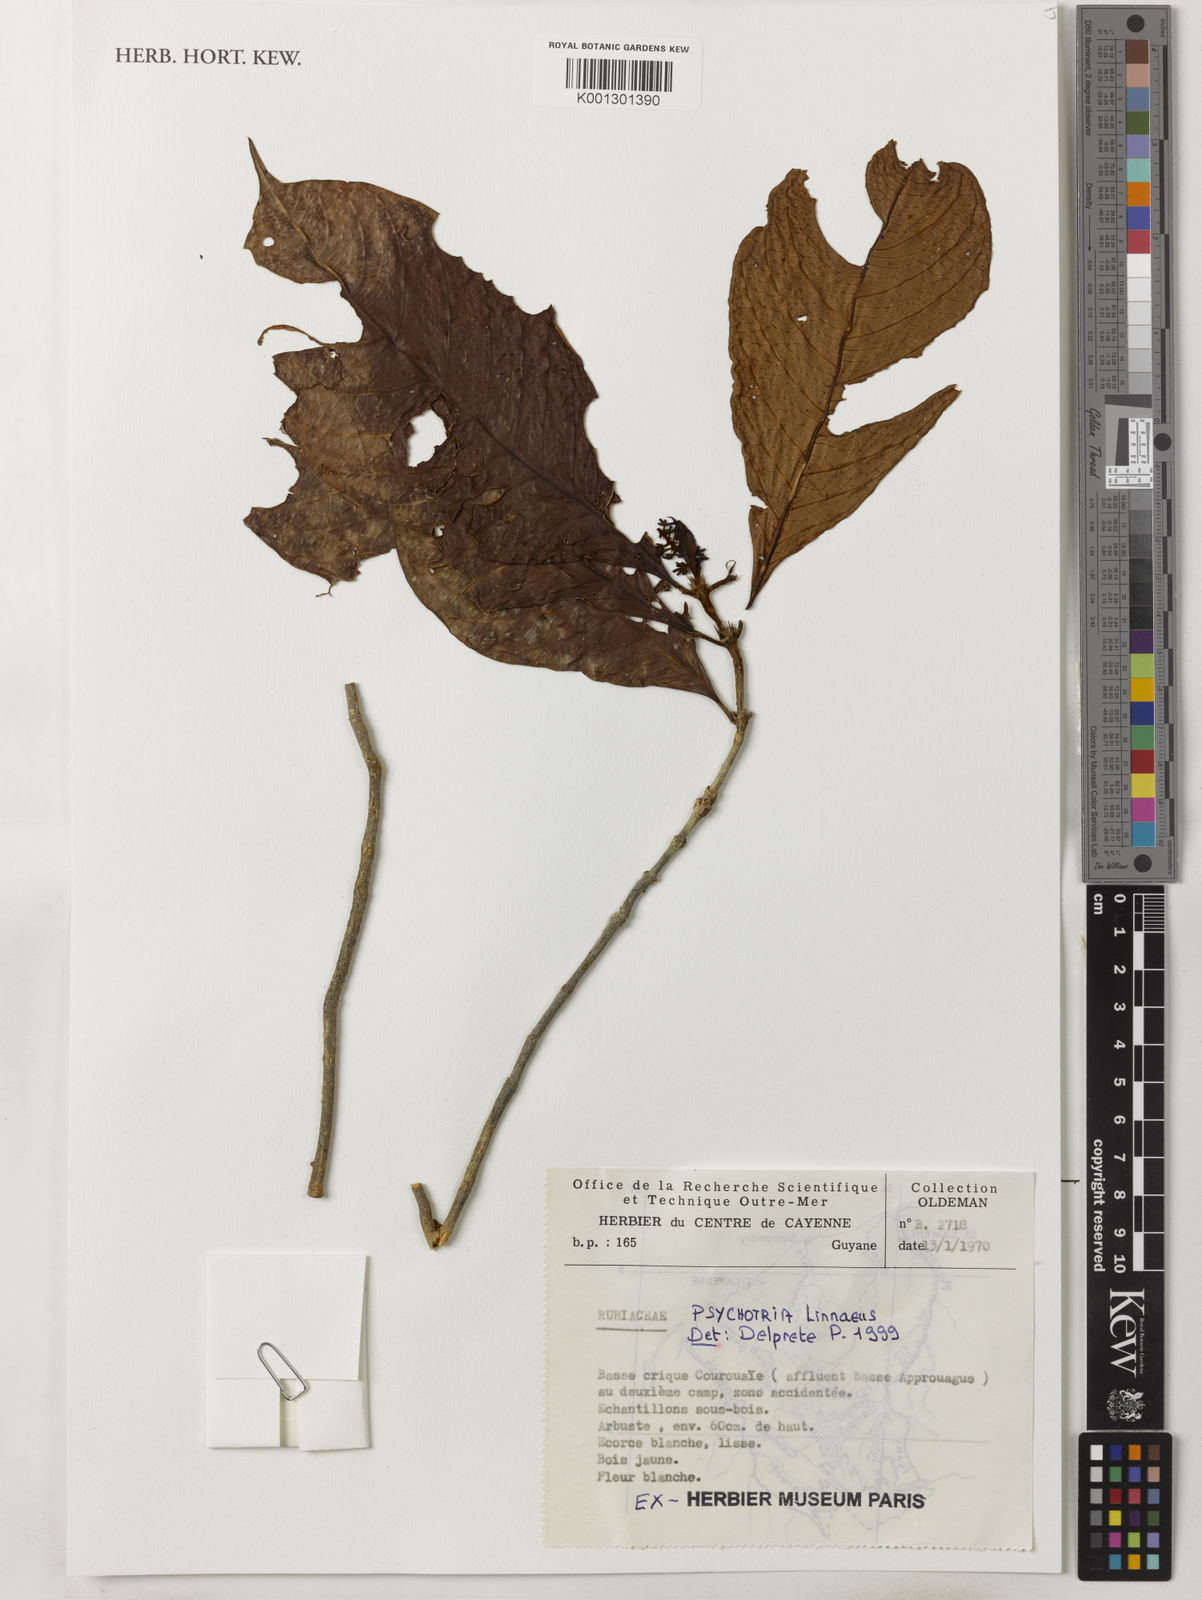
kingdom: Plantae
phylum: Tracheophyta
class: Magnoliopsida
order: Gentianales
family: Rubiaceae
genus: Psychotria
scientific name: Psychotria
